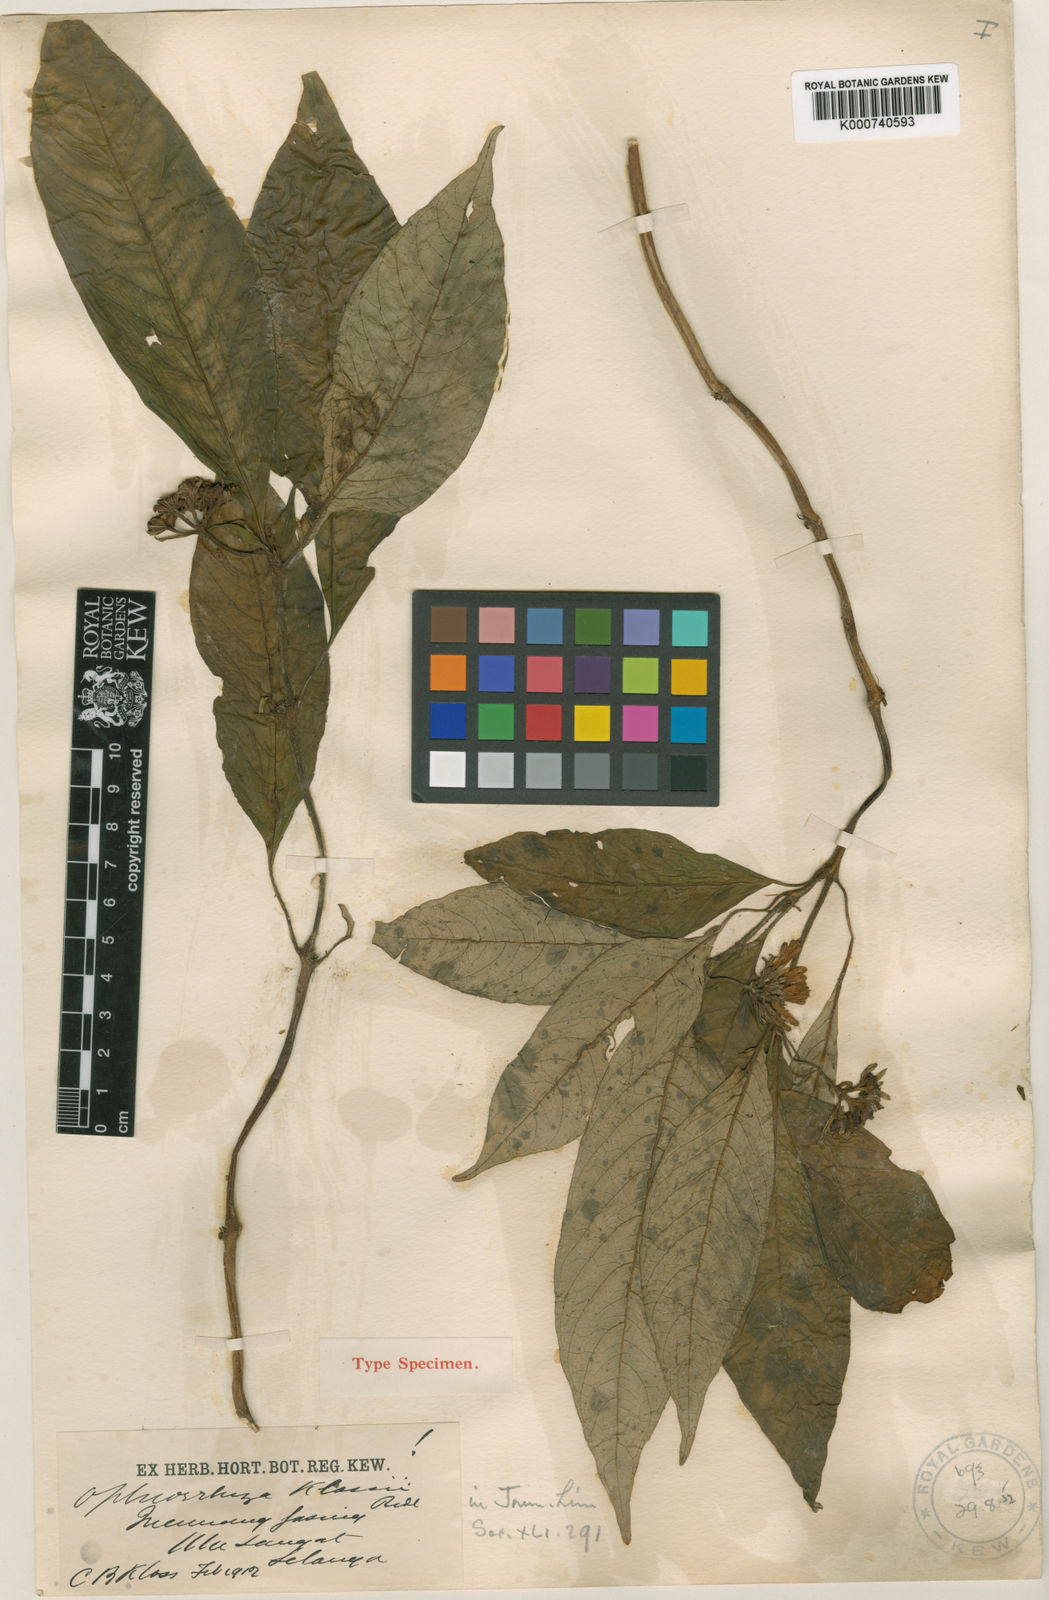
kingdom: Plantae
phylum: Tracheophyta
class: Magnoliopsida
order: Gentianales
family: Rubiaceae
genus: Ophiorrhiza
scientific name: Ophiorrhiza klossii
